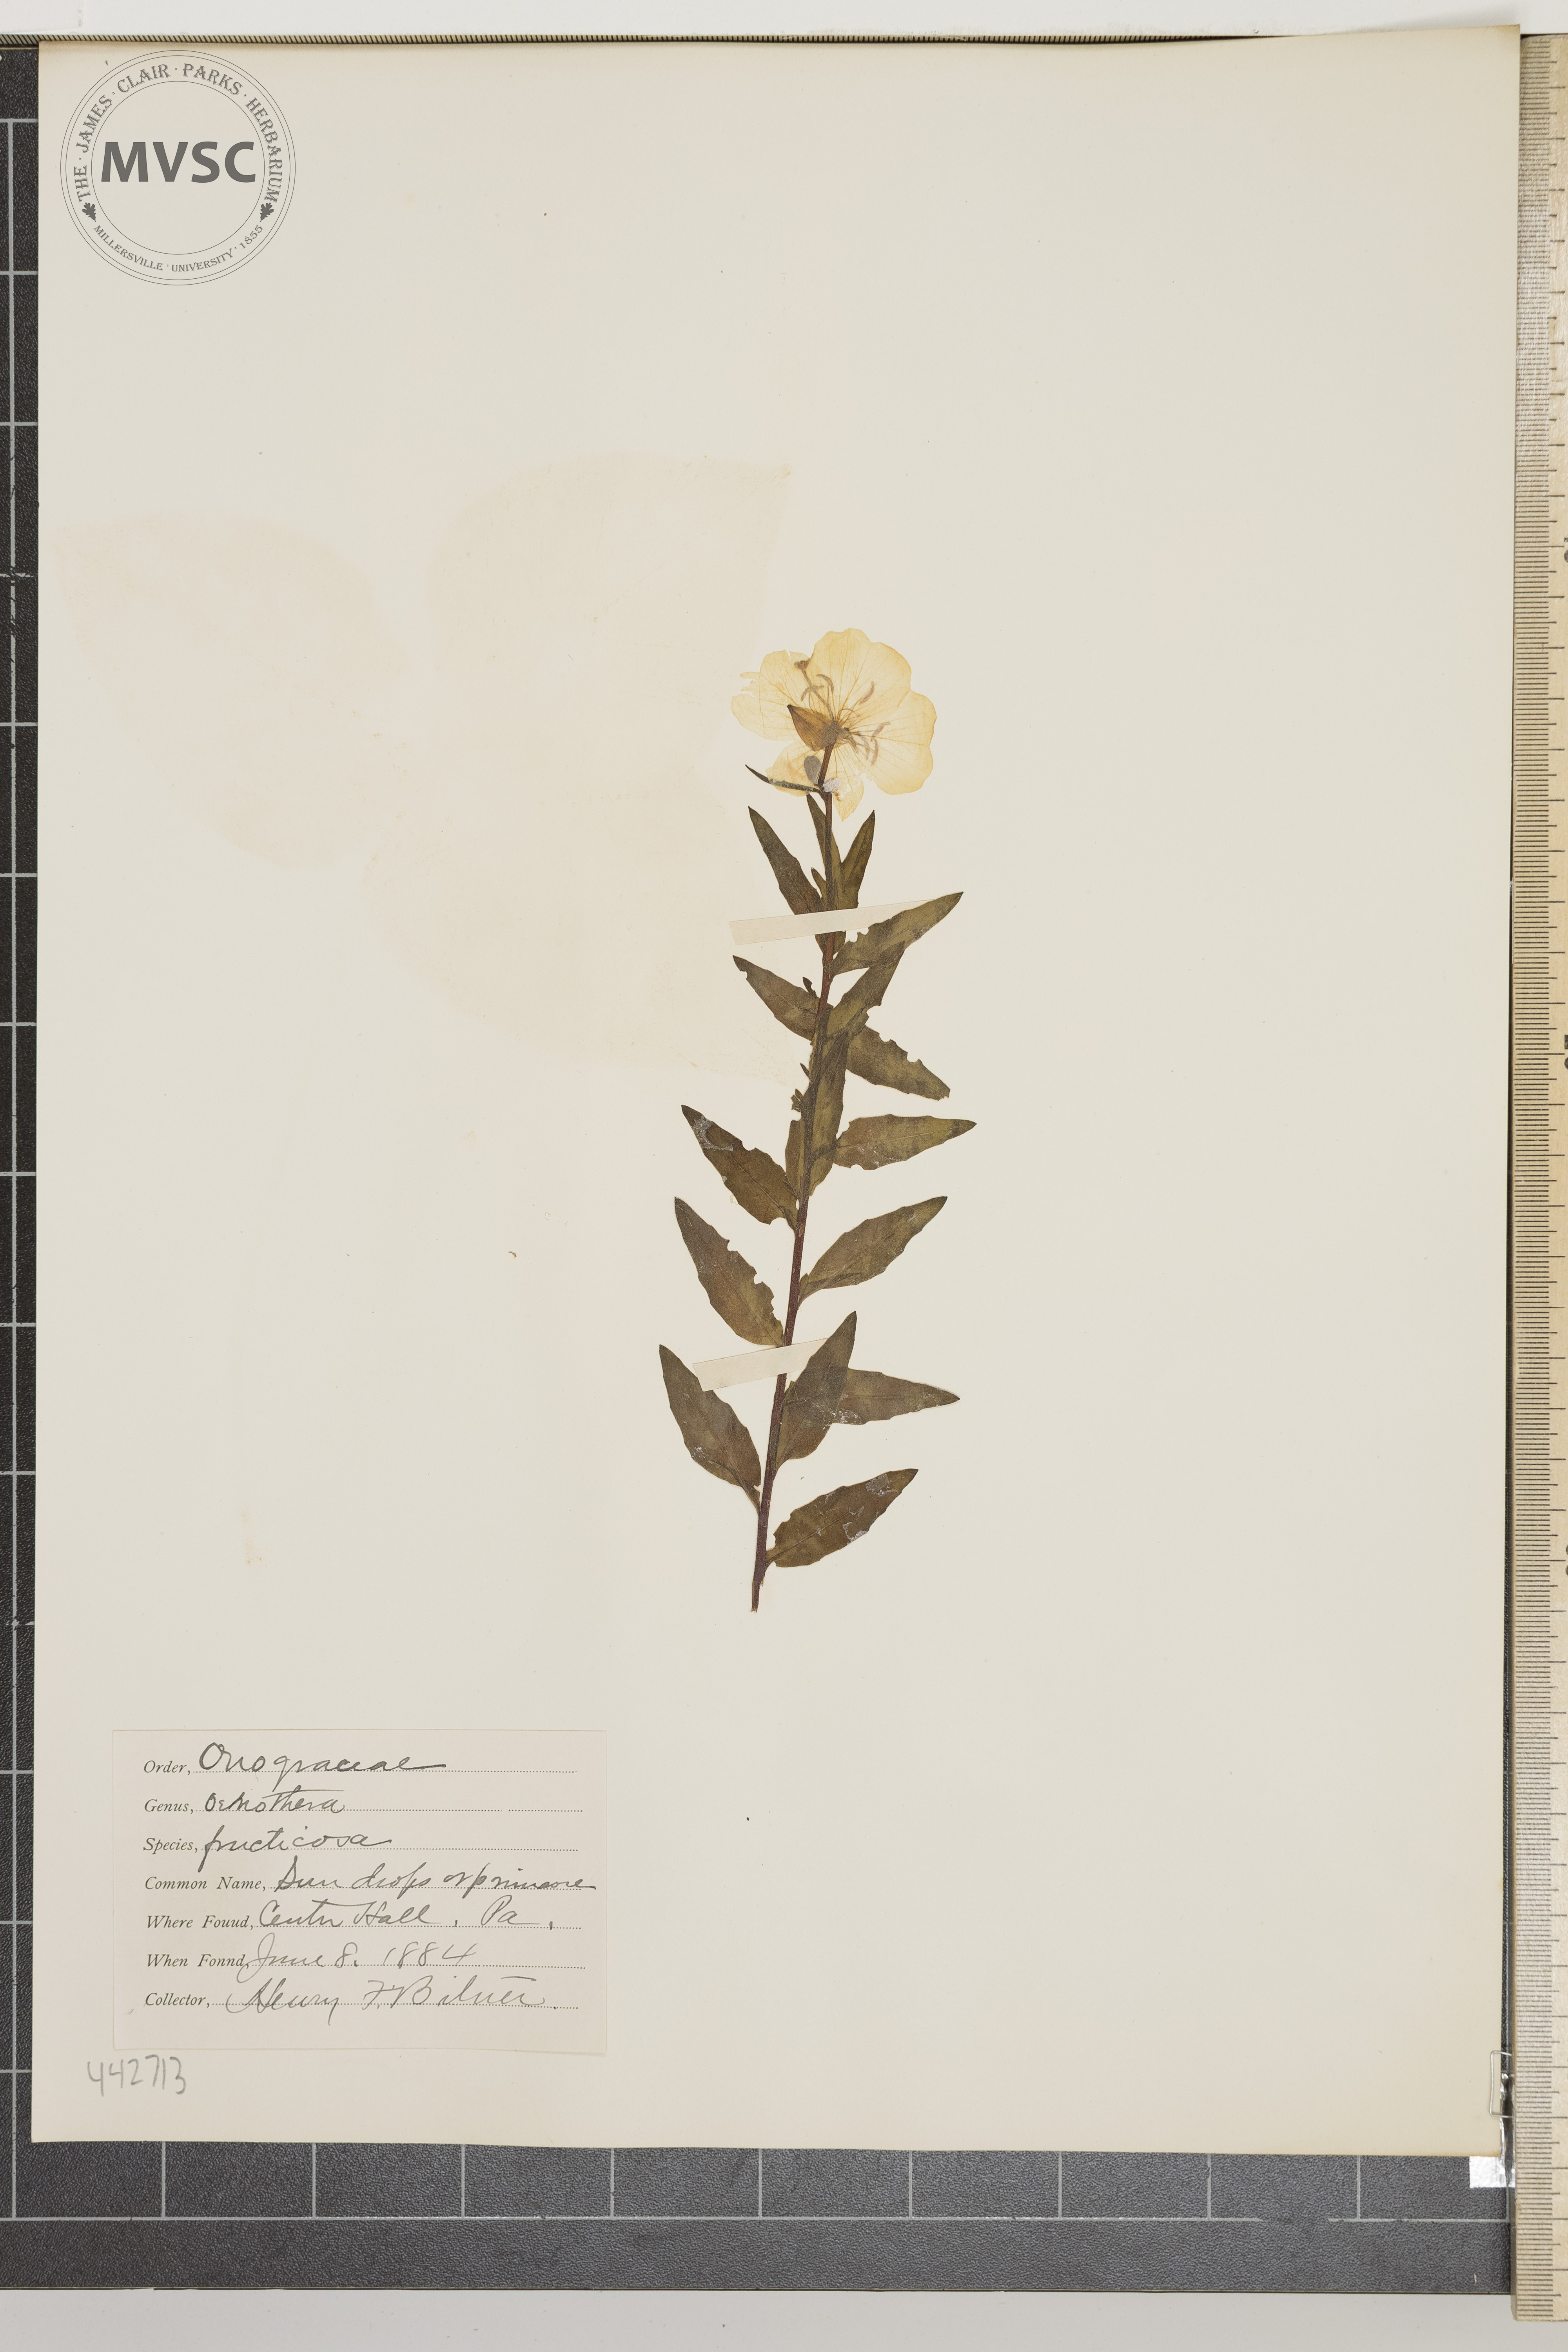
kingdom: Plantae
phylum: Tracheophyta
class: Magnoliopsida
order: Myrtales
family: Onagraceae
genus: Oenothera
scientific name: Oenothera fruticosa
